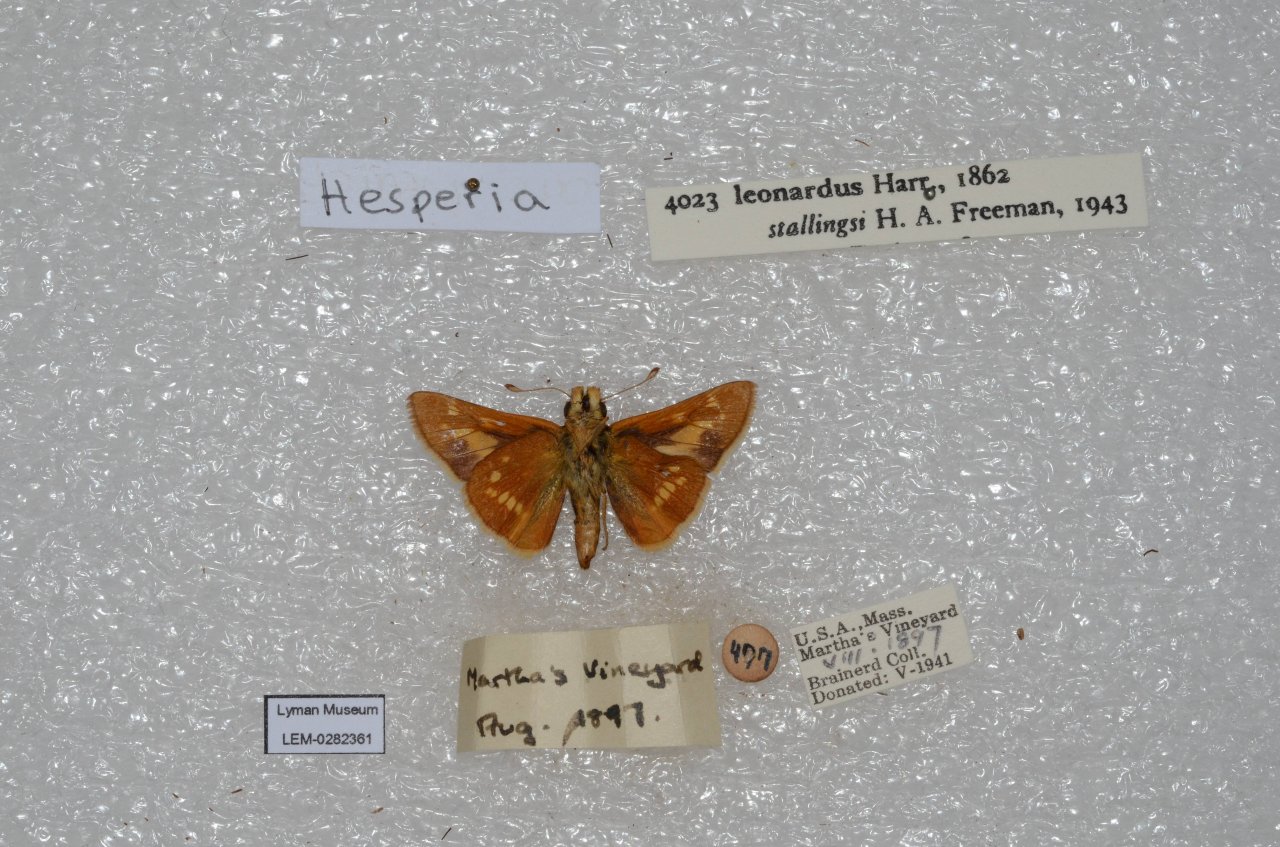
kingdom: Animalia
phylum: Arthropoda
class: Insecta
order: Lepidoptera
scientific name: Lepidoptera
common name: Butterflies
